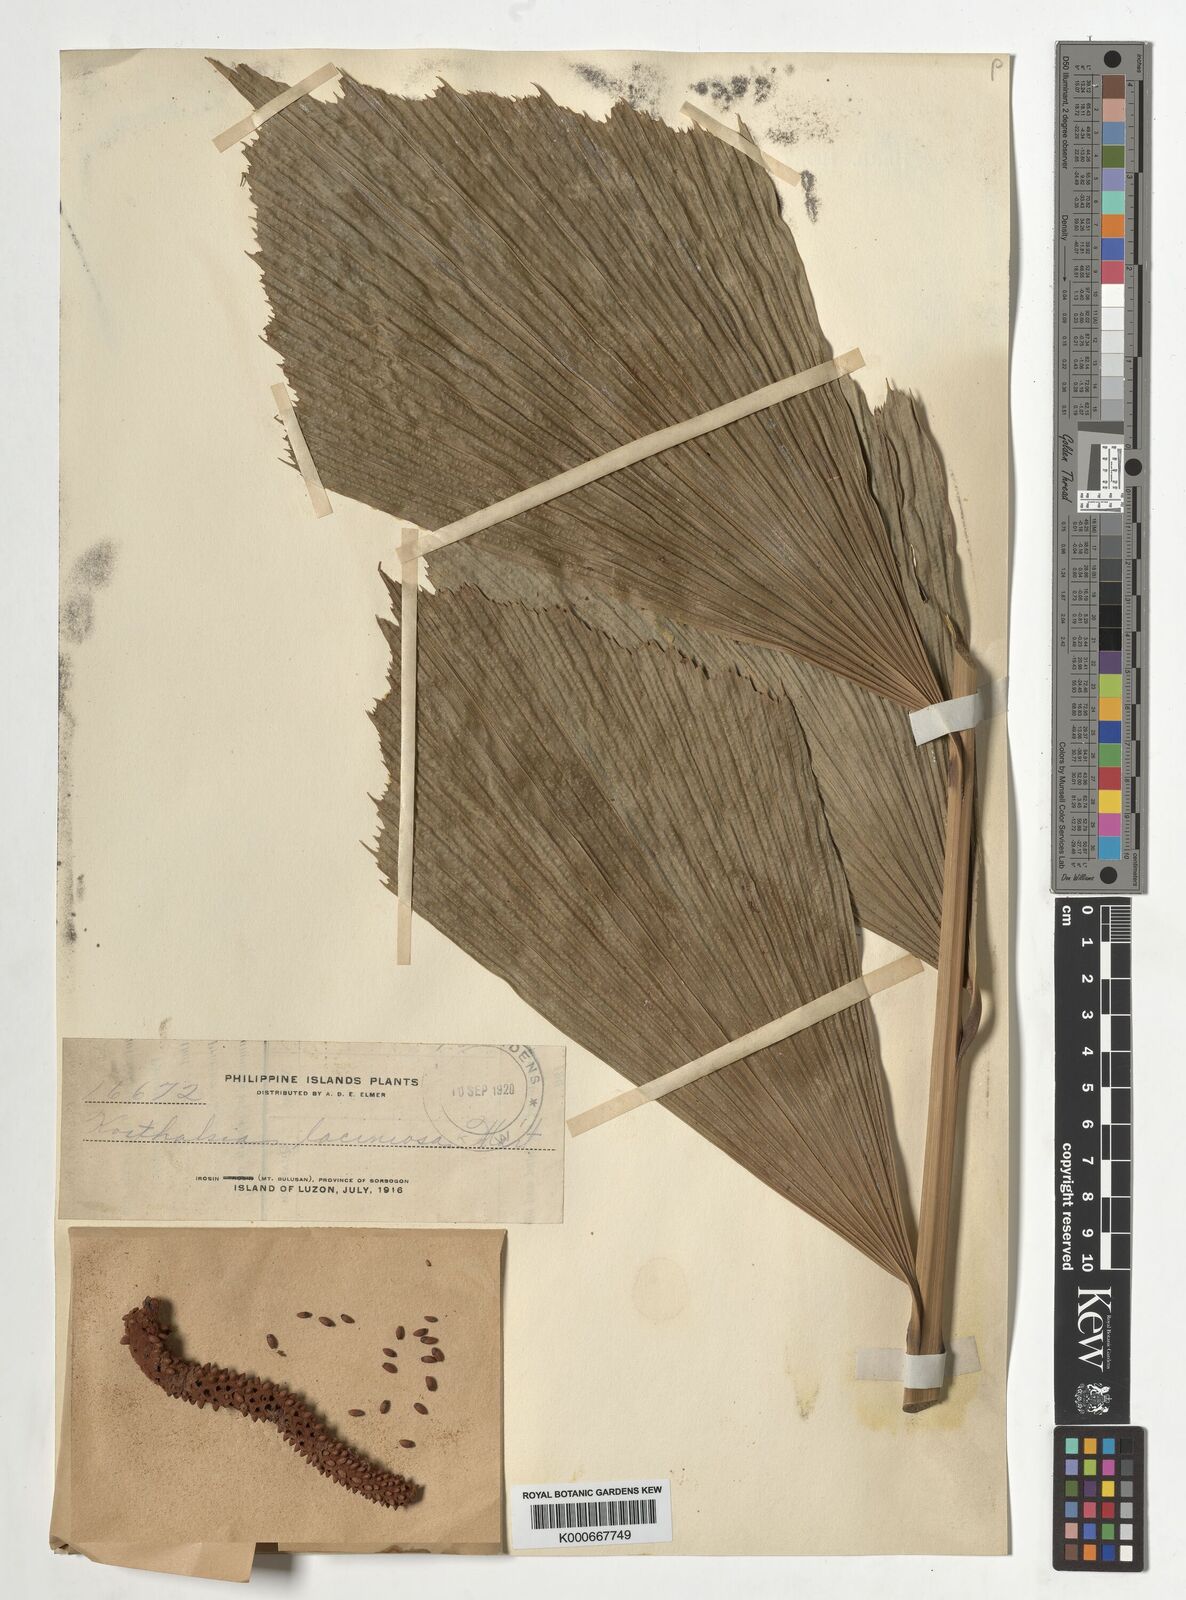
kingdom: Plantae
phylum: Tracheophyta
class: Liliopsida
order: Arecales
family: Arecaceae
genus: Korthalsia
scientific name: Korthalsia laciniosa
